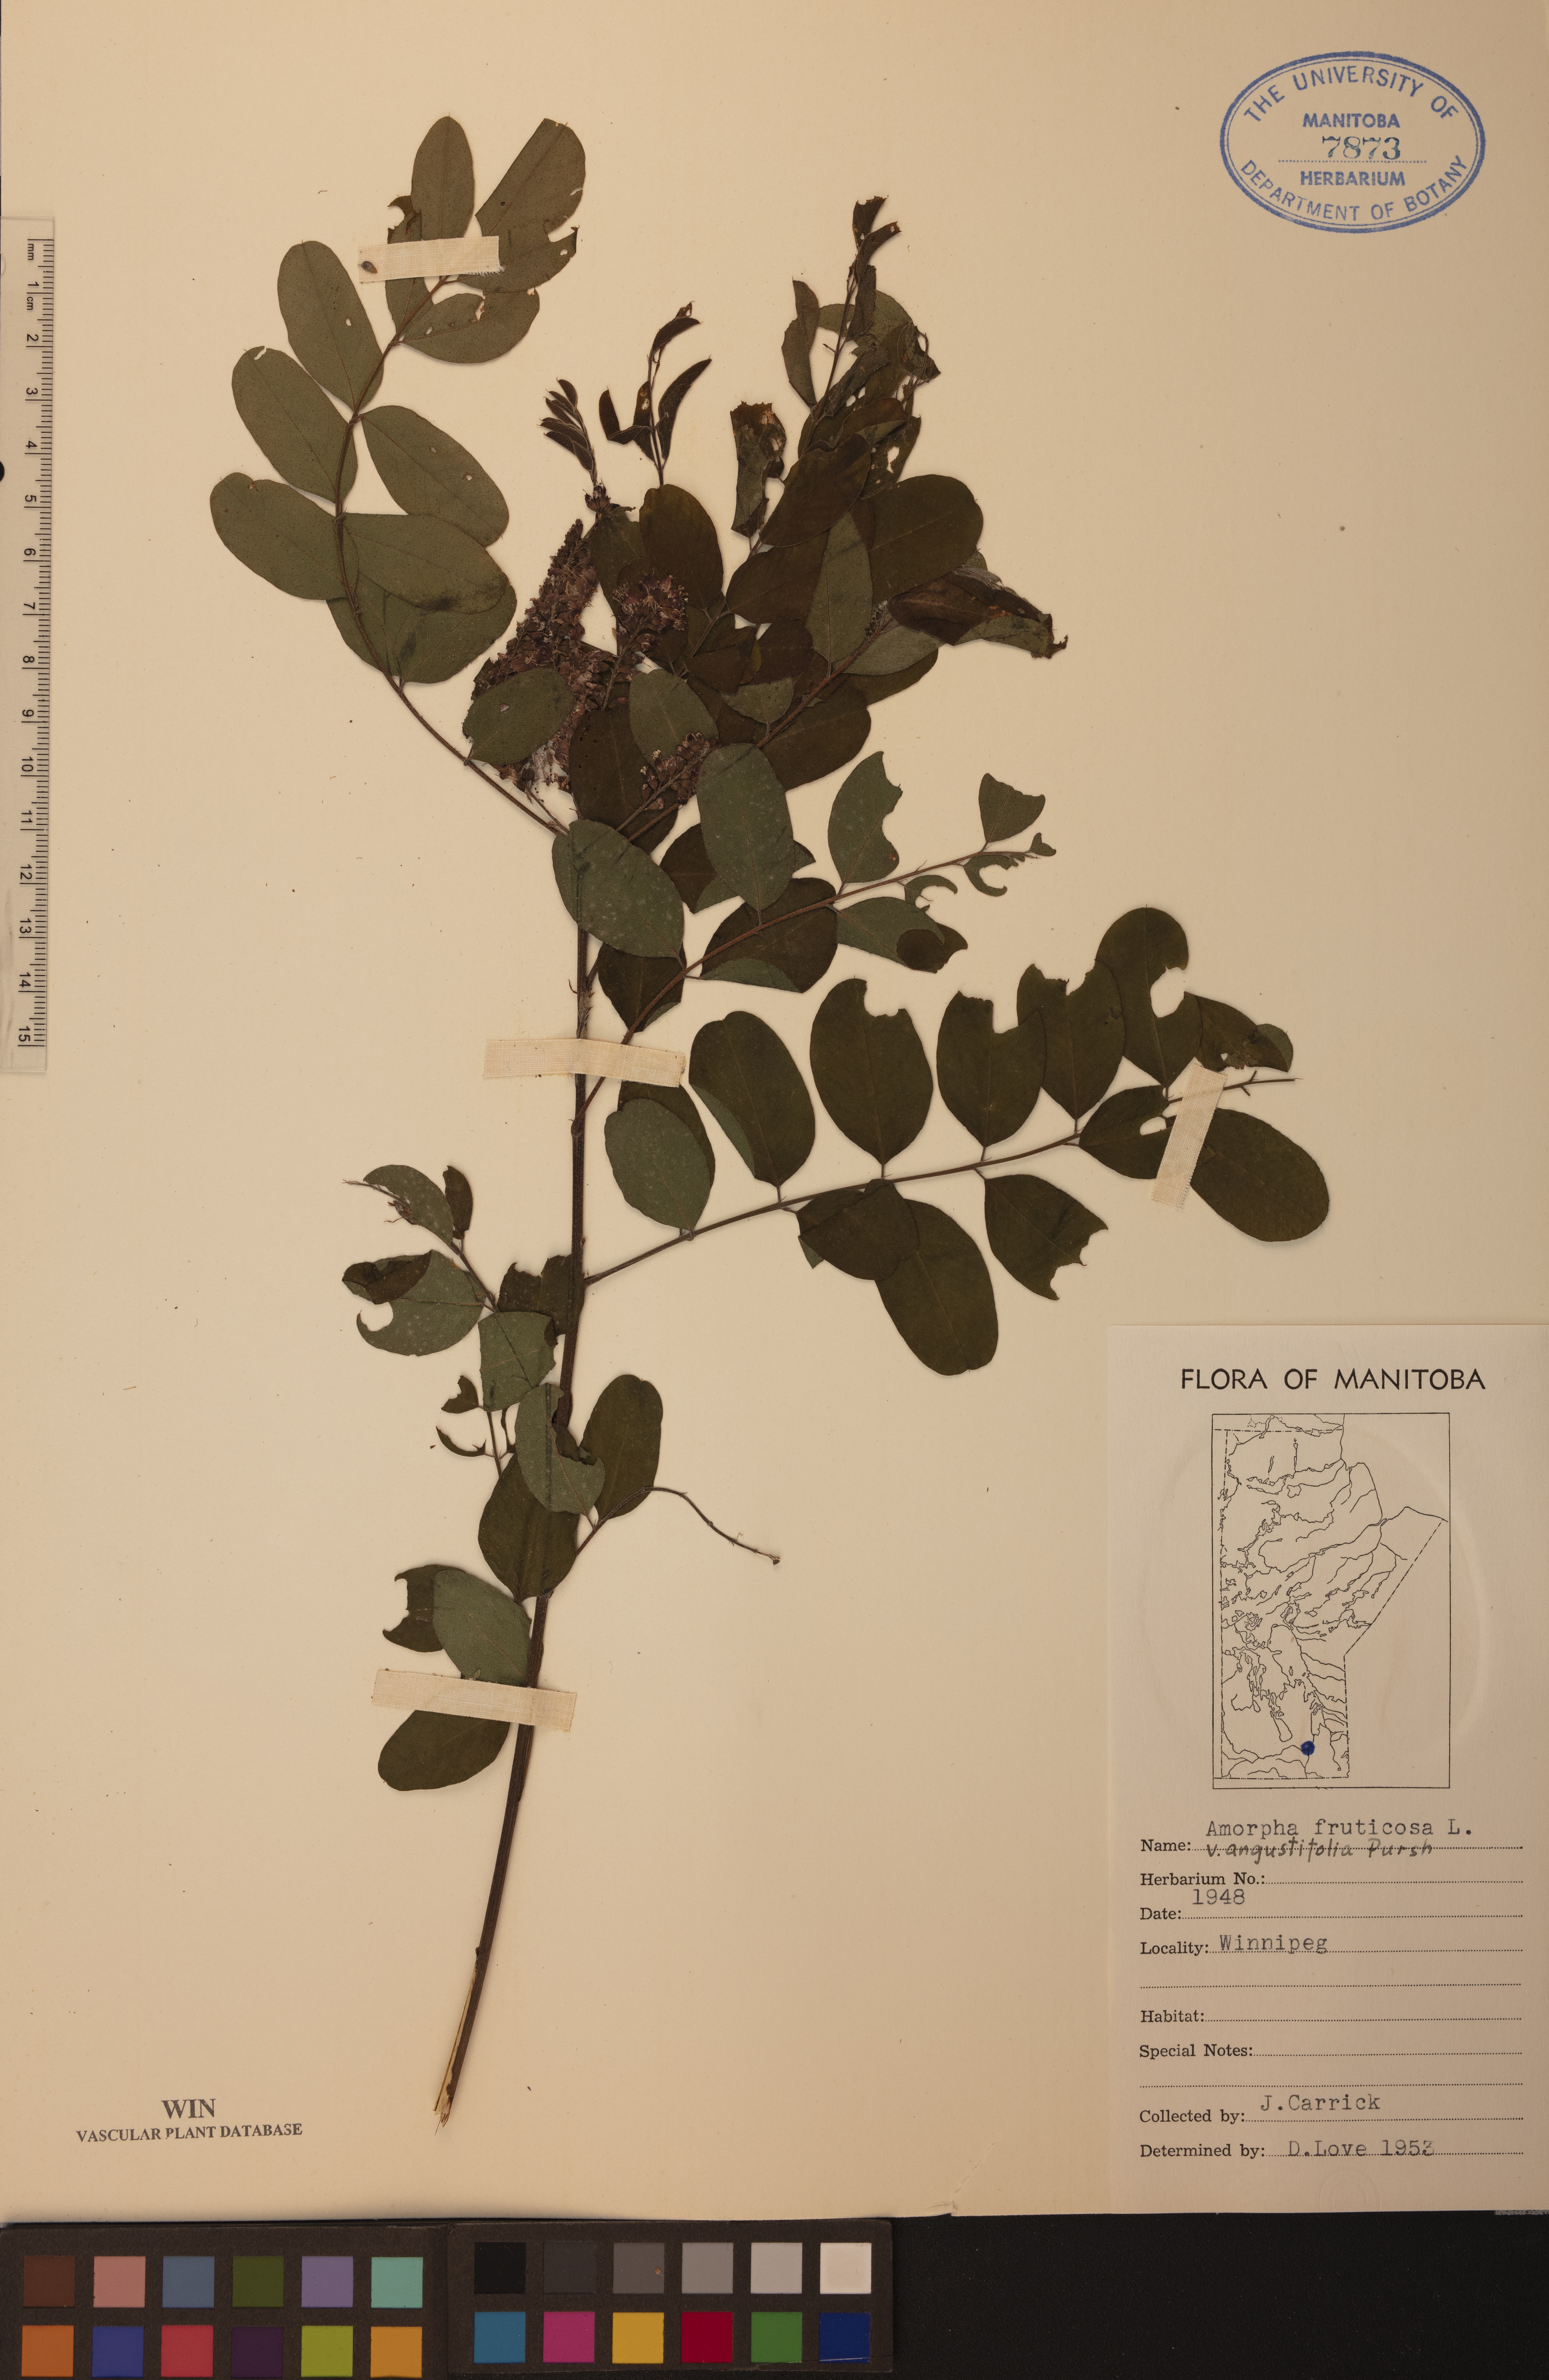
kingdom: Plantae
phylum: Tracheophyta
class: Magnoliopsida
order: Fabales
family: Fabaceae
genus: Amorpha
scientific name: Amorpha fruticosa
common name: False indigo
